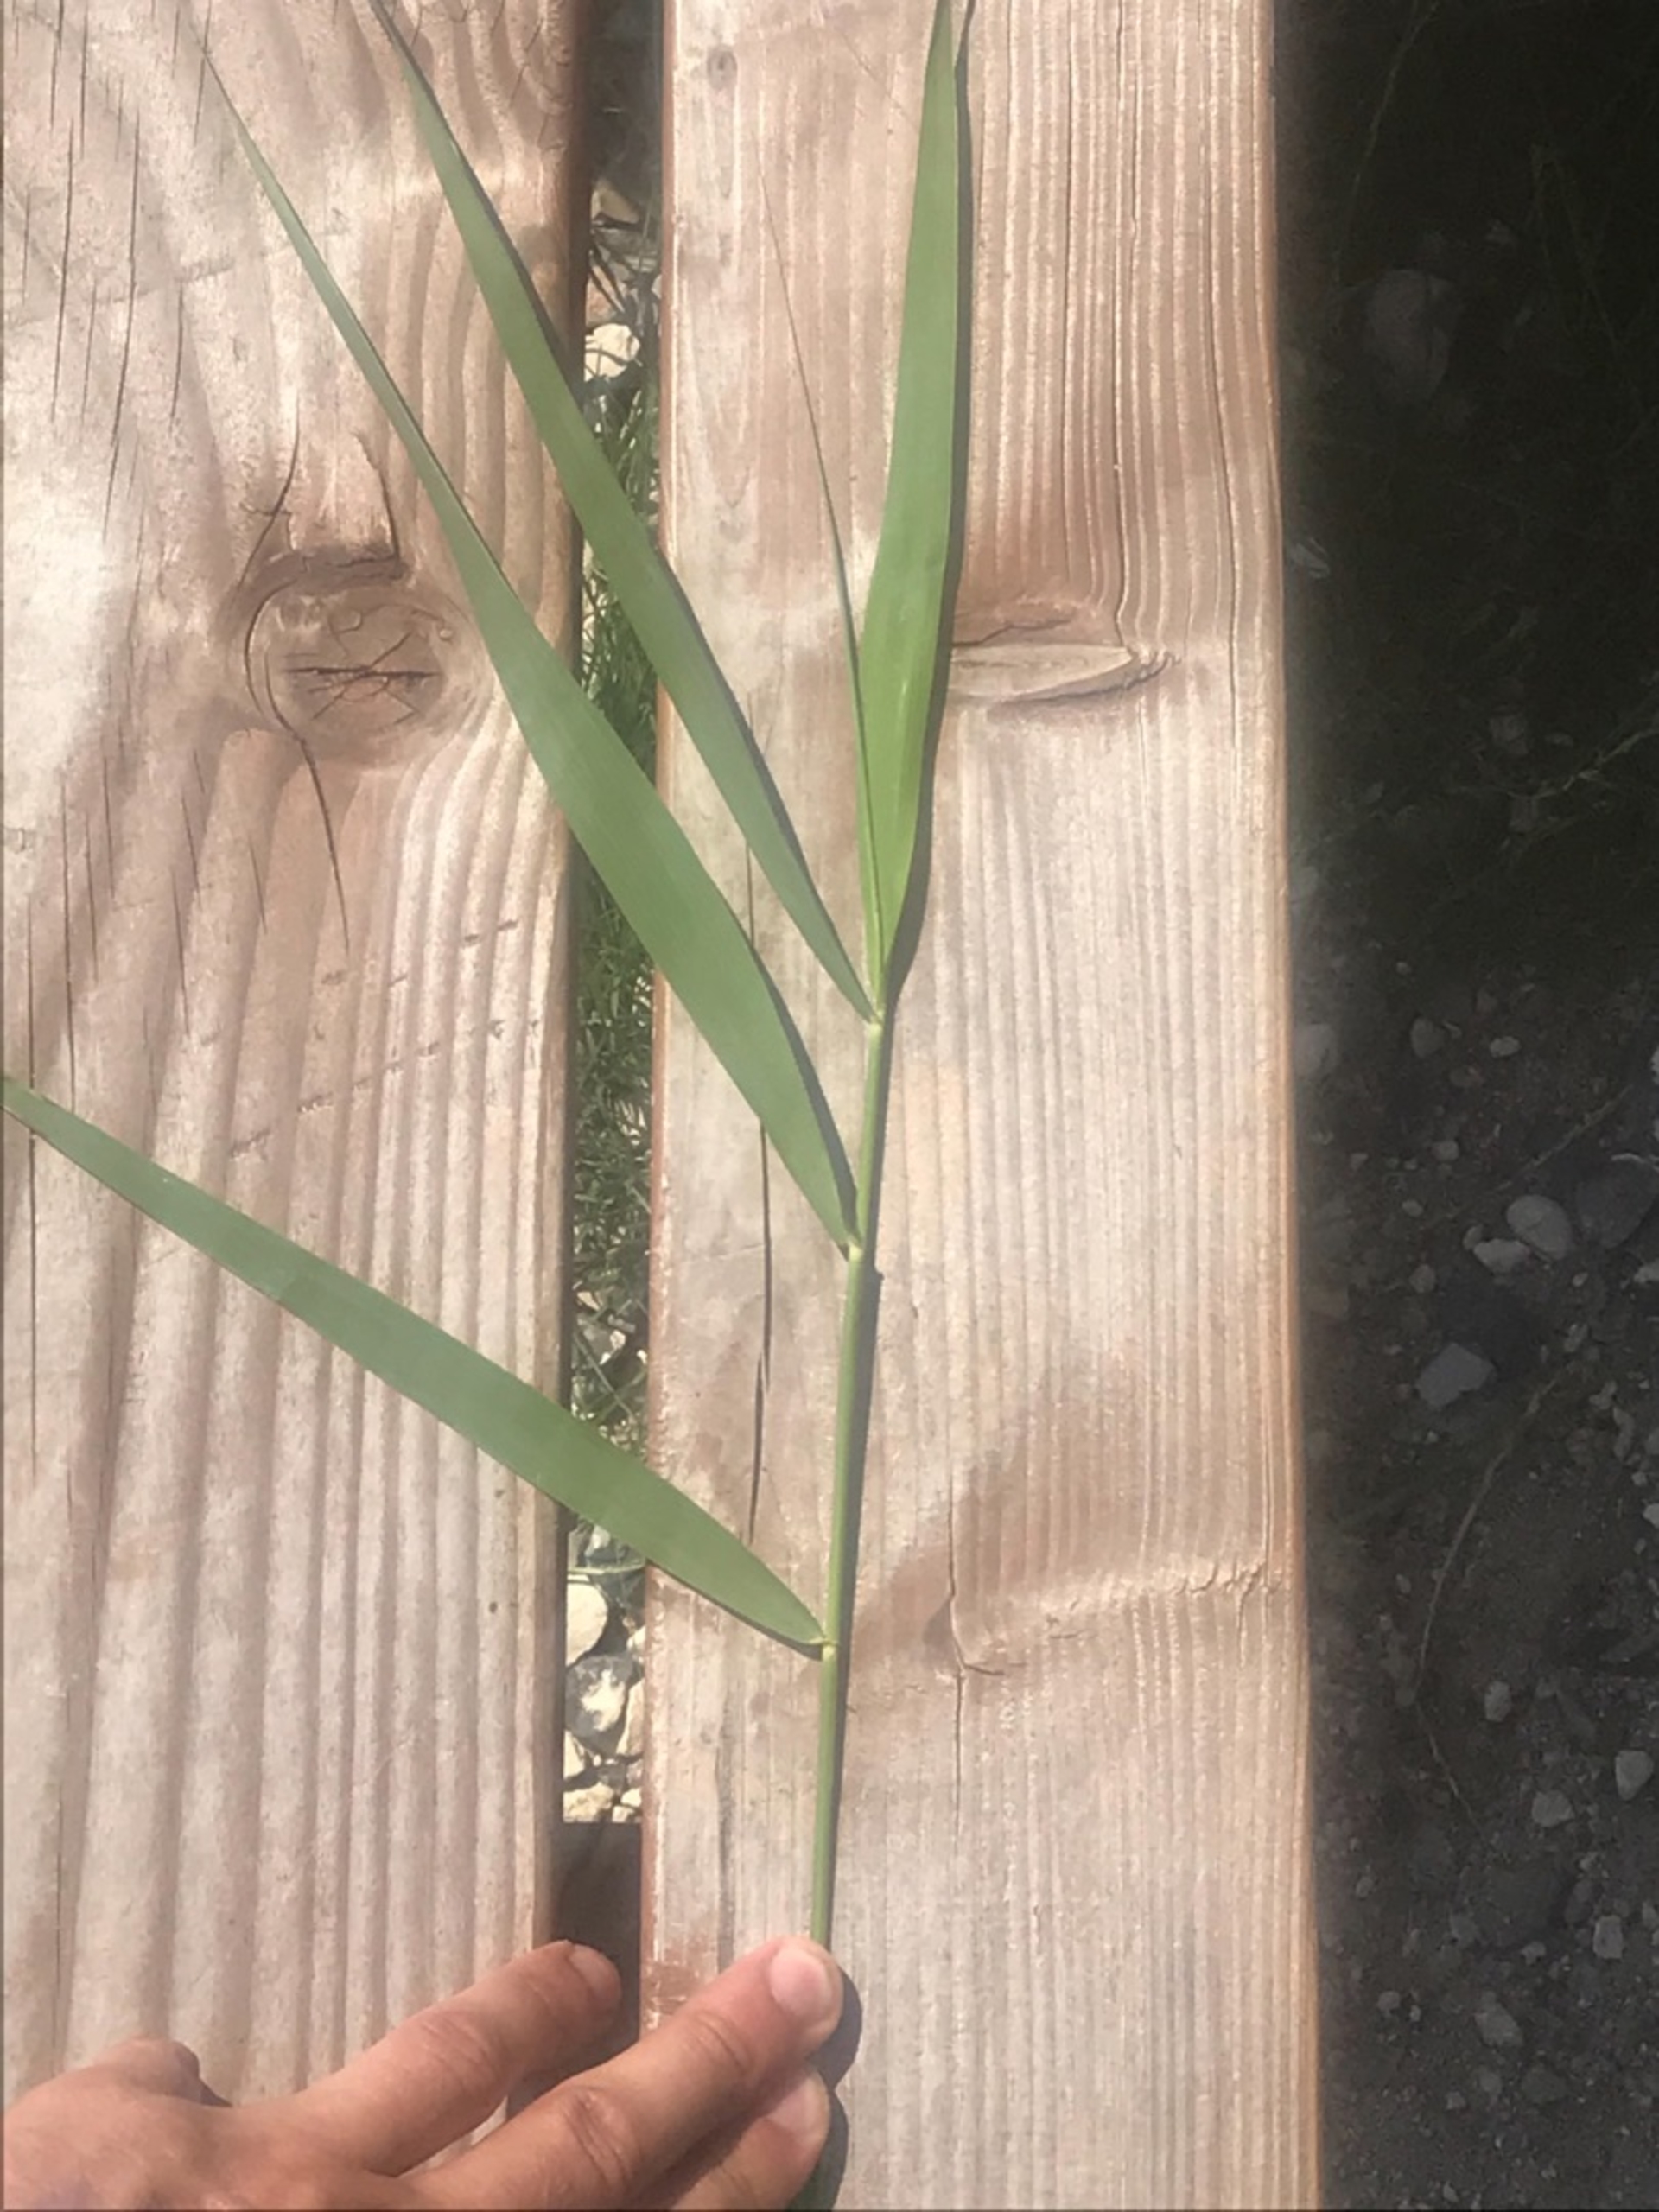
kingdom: Plantae
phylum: Tracheophyta
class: Liliopsida
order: Poales
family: Poaceae
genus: Phragmites
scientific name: Phragmites australis
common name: Tagrør
